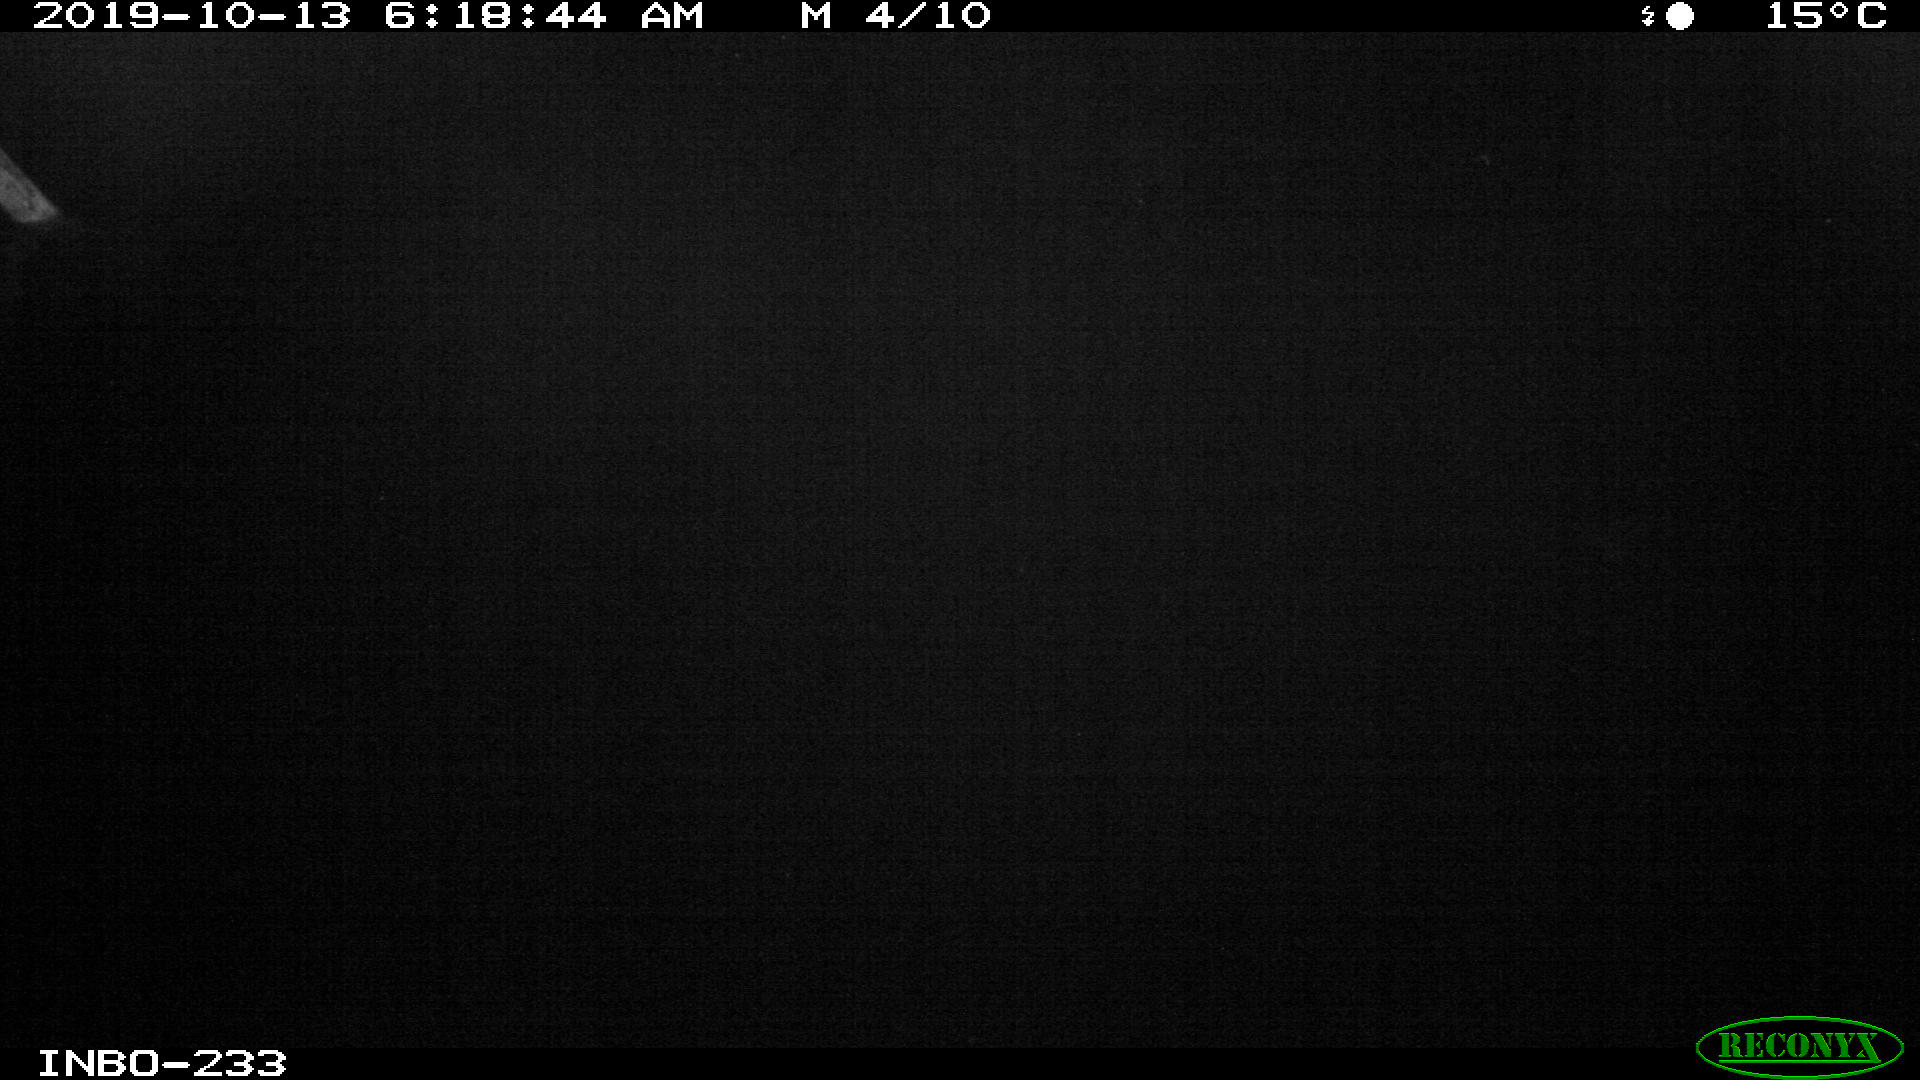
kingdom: Animalia
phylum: Chordata
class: Aves
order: Anseriformes
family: Anatidae
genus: Anas
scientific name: Anas platyrhynchos
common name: Mallard
